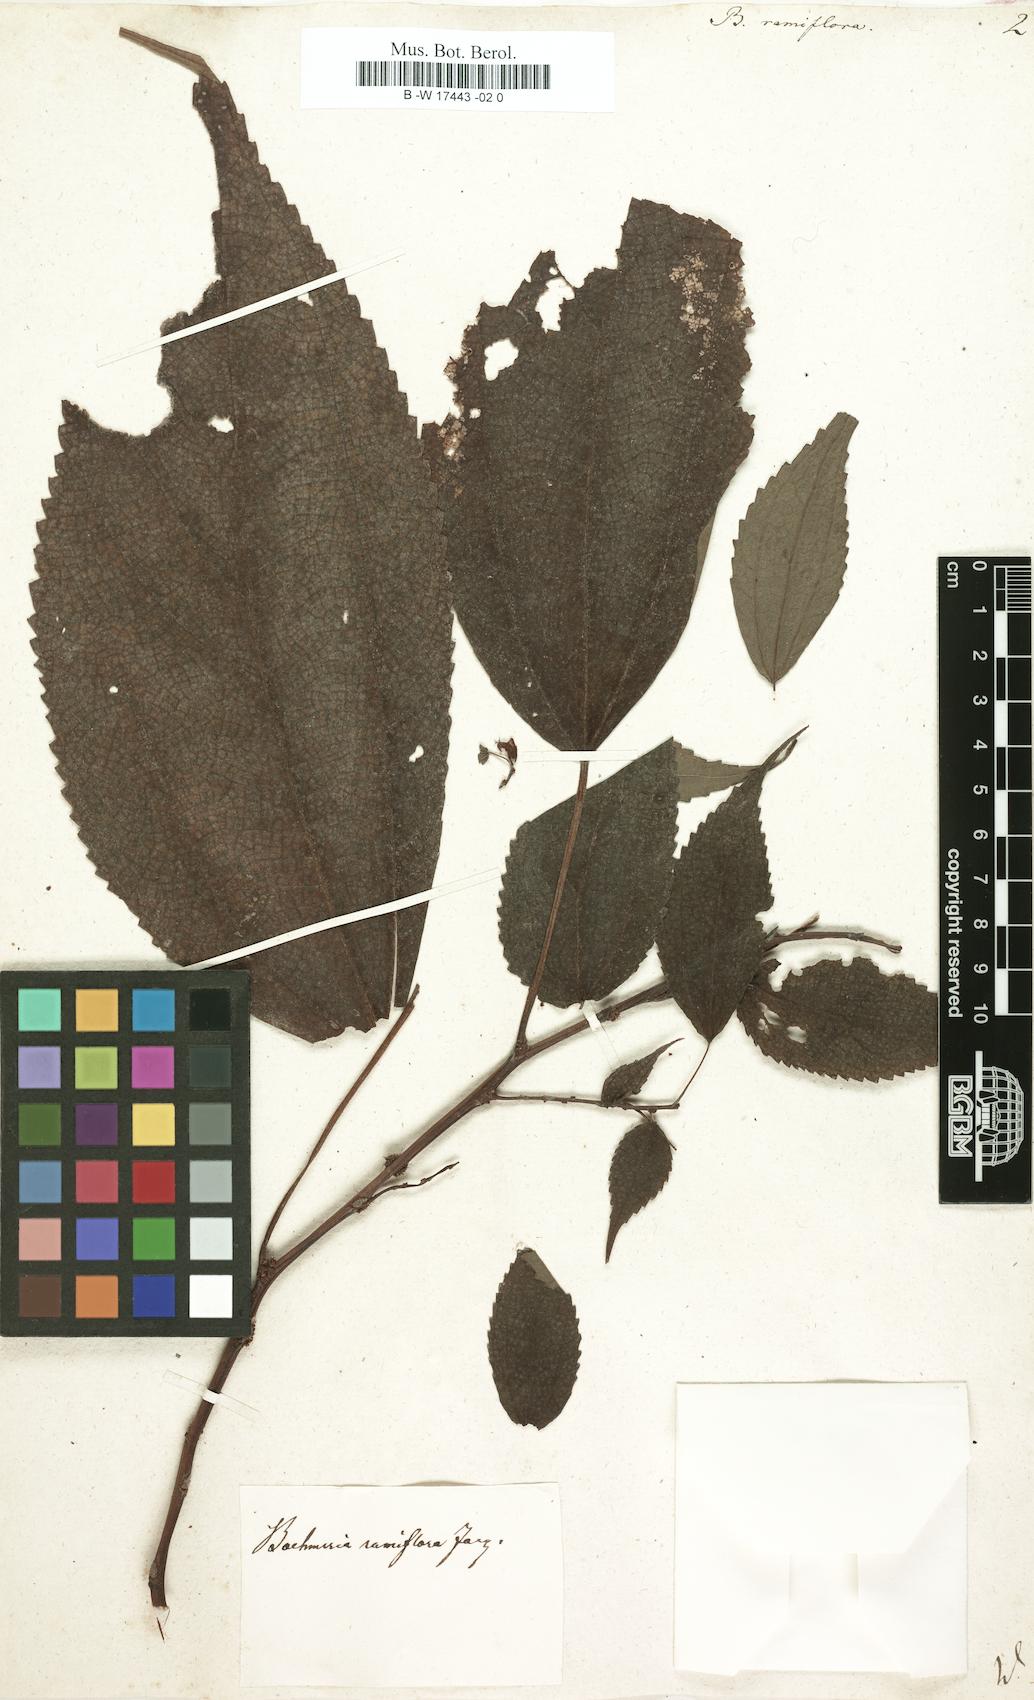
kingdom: Plantae
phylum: Tracheophyta
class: Magnoliopsida
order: Rosales
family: Urticaceae
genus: Boehmeria
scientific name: Boehmeria ramiflora
